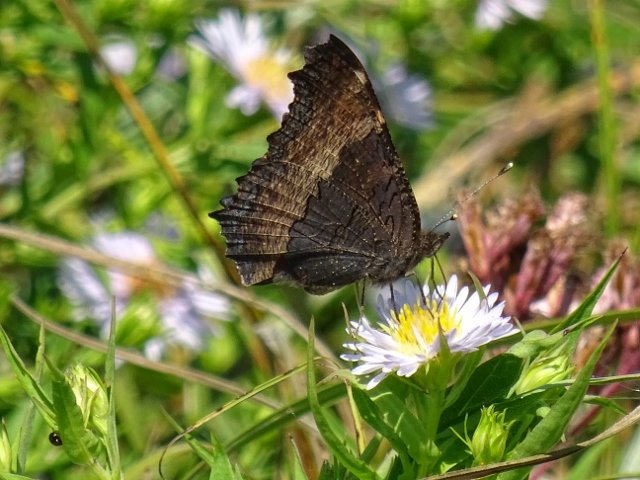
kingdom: Animalia
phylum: Arthropoda
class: Insecta
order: Lepidoptera
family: Nymphalidae
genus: Aglais
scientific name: Aglais milberti
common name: Milbert's Tortoiseshell
